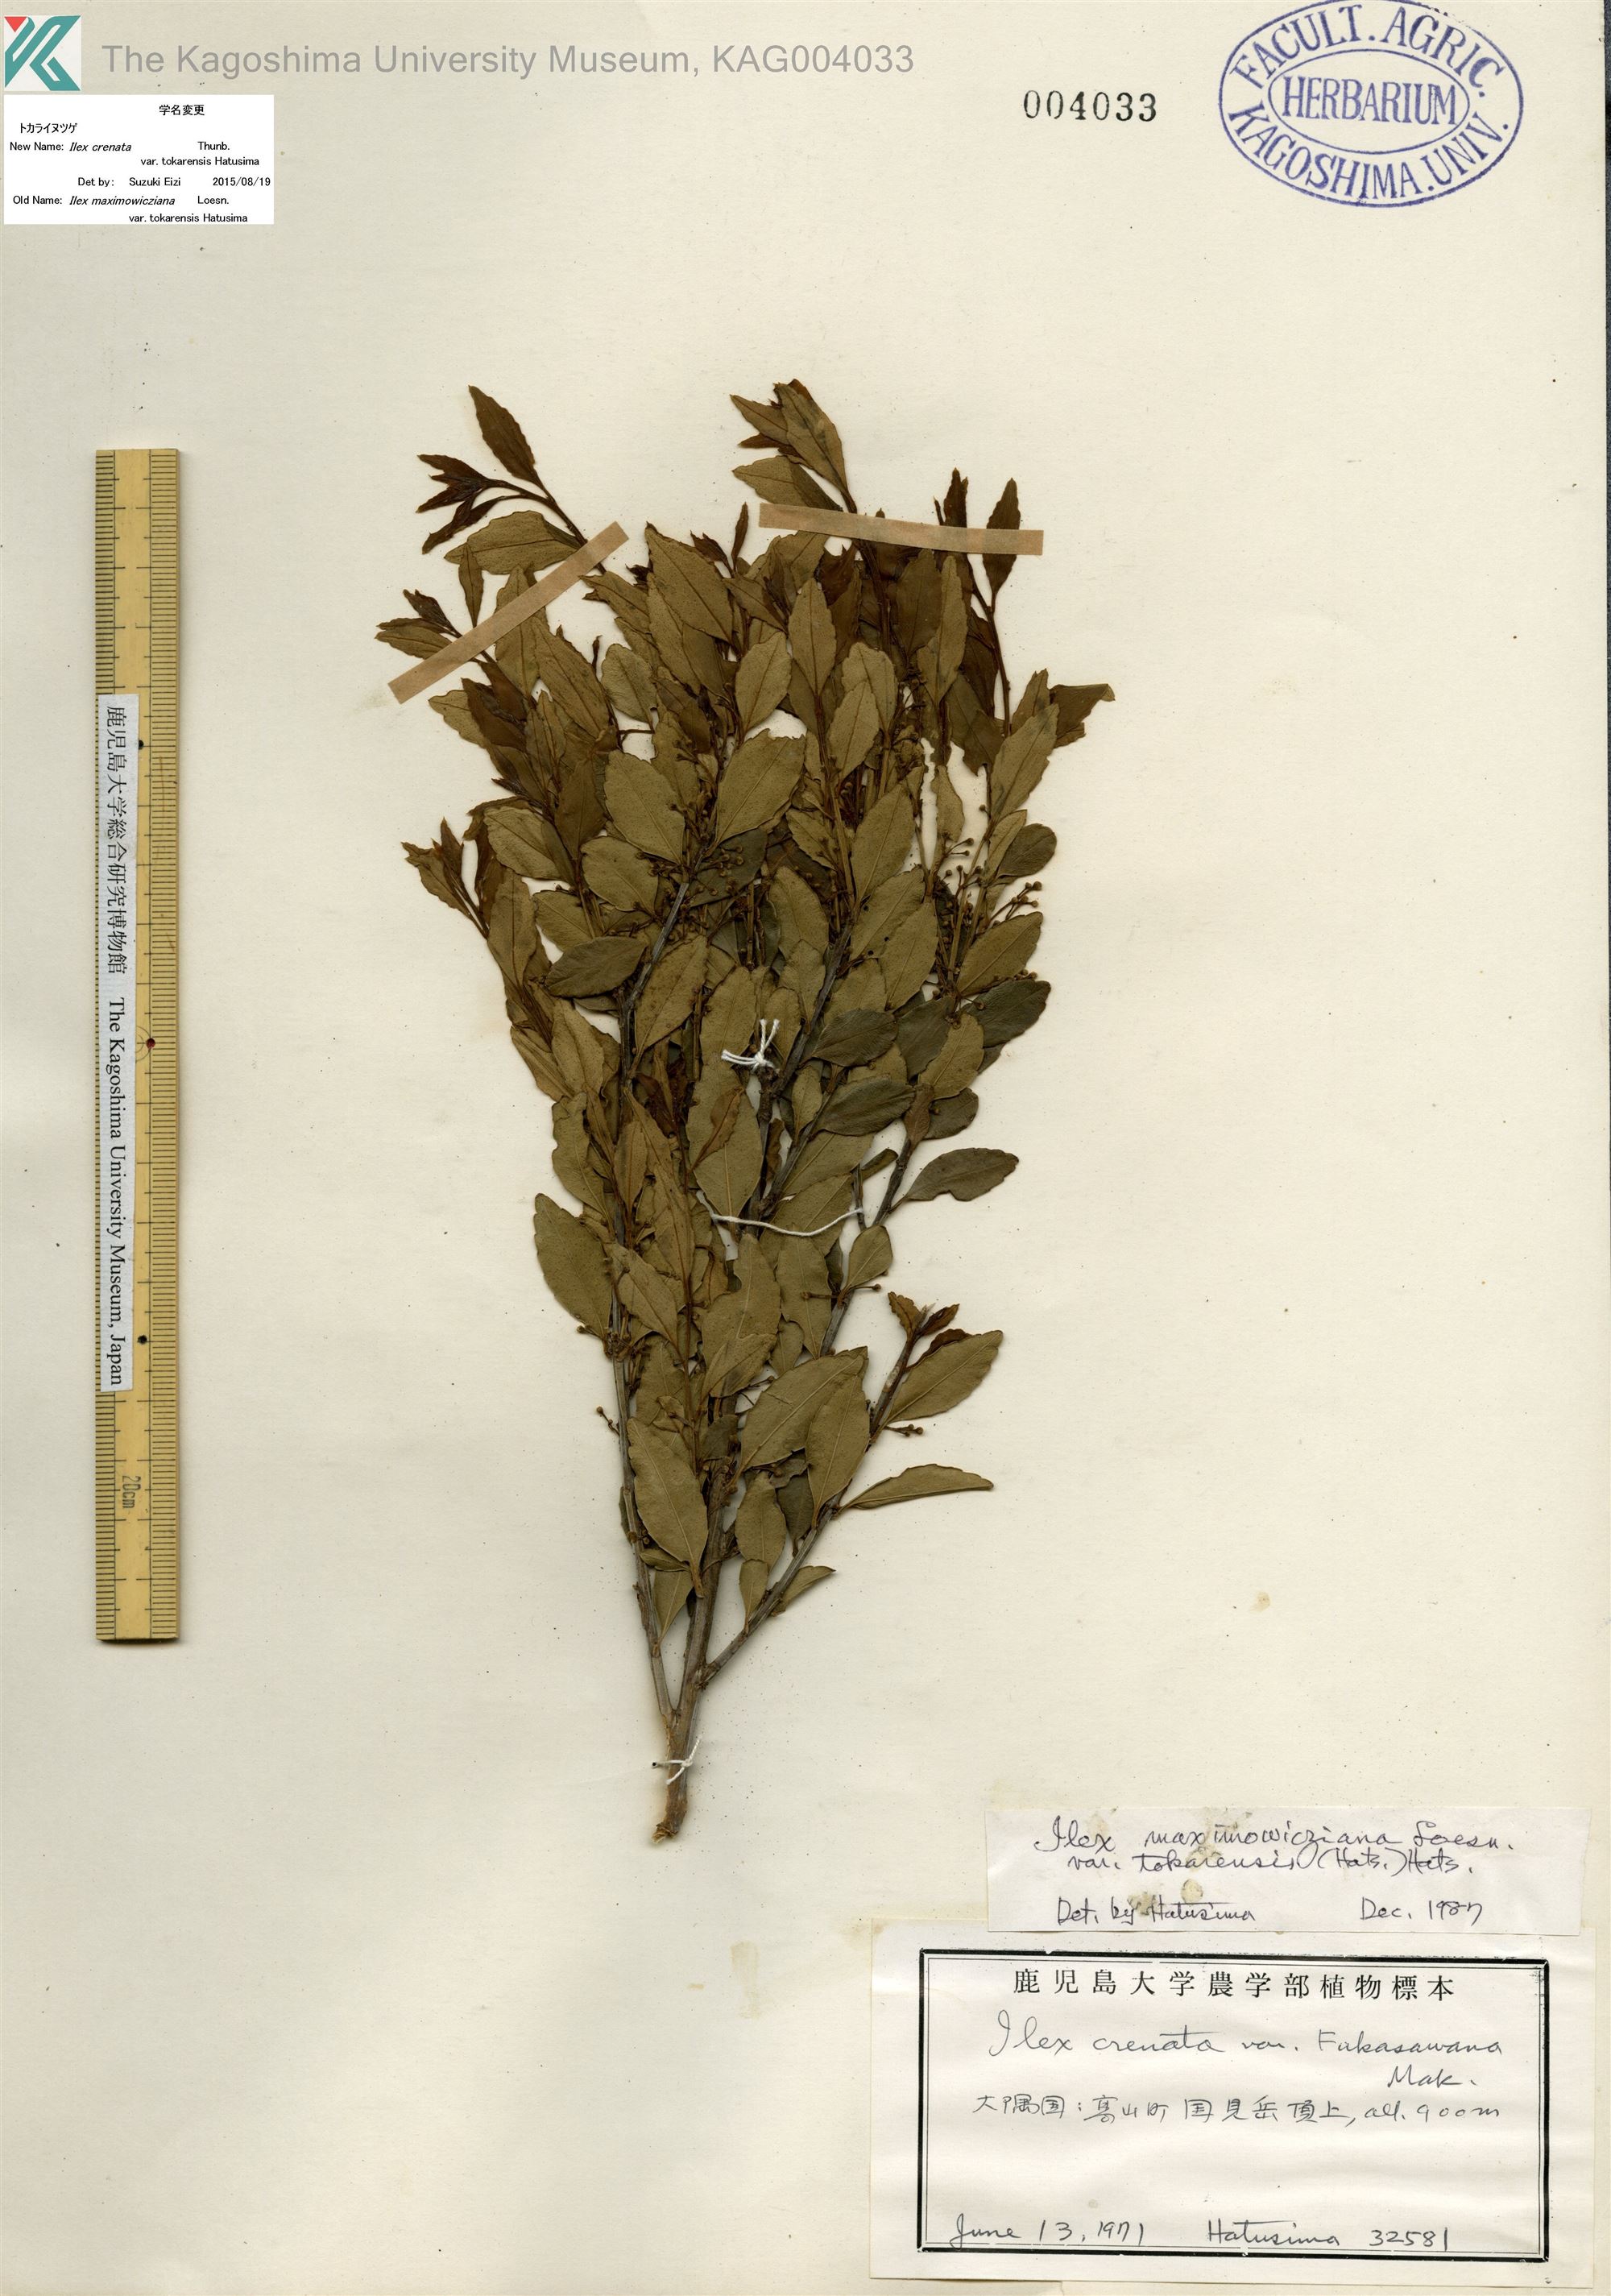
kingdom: Plantae
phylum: Tracheophyta
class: Magnoliopsida
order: Aquifoliales
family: Aquifoliaceae
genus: Ilex
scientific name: Ilex crenata
